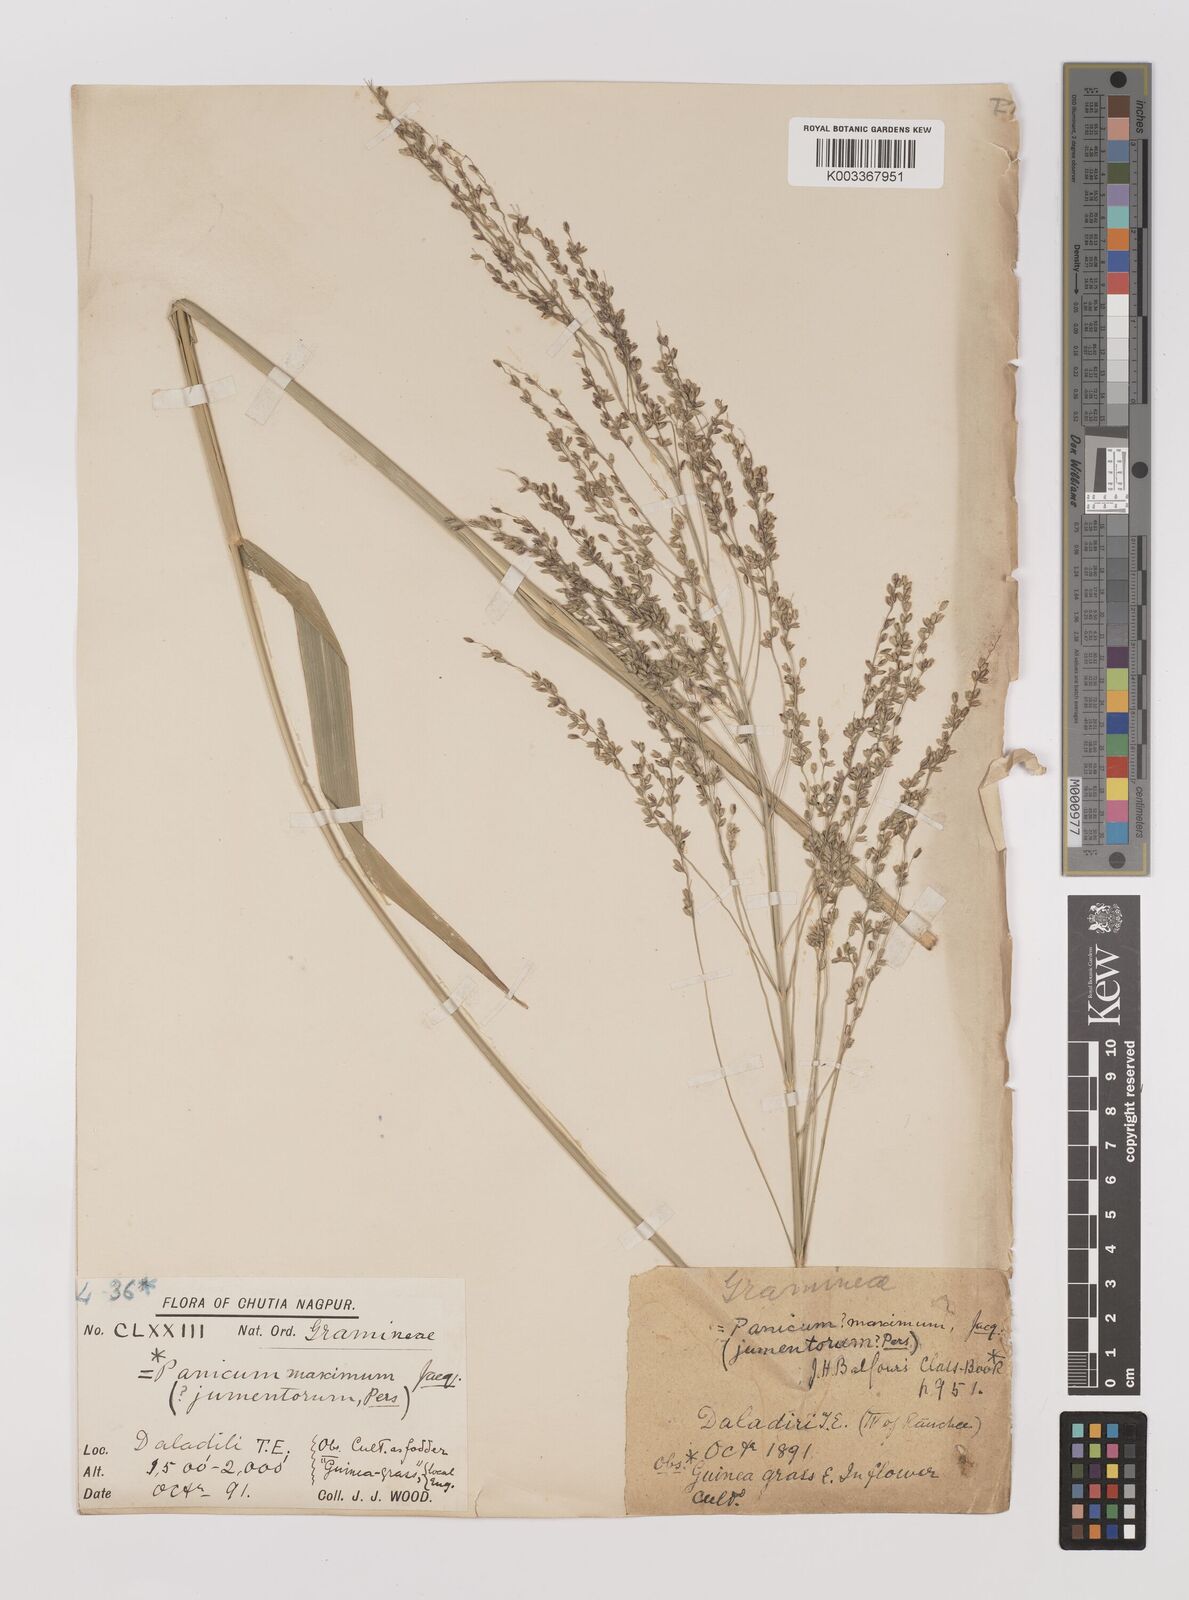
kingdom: Plantae
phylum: Tracheophyta
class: Liliopsida
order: Poales
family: Poaceae
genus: Megathyrsus
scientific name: Megathyrsus maximus
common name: Guineagrass
